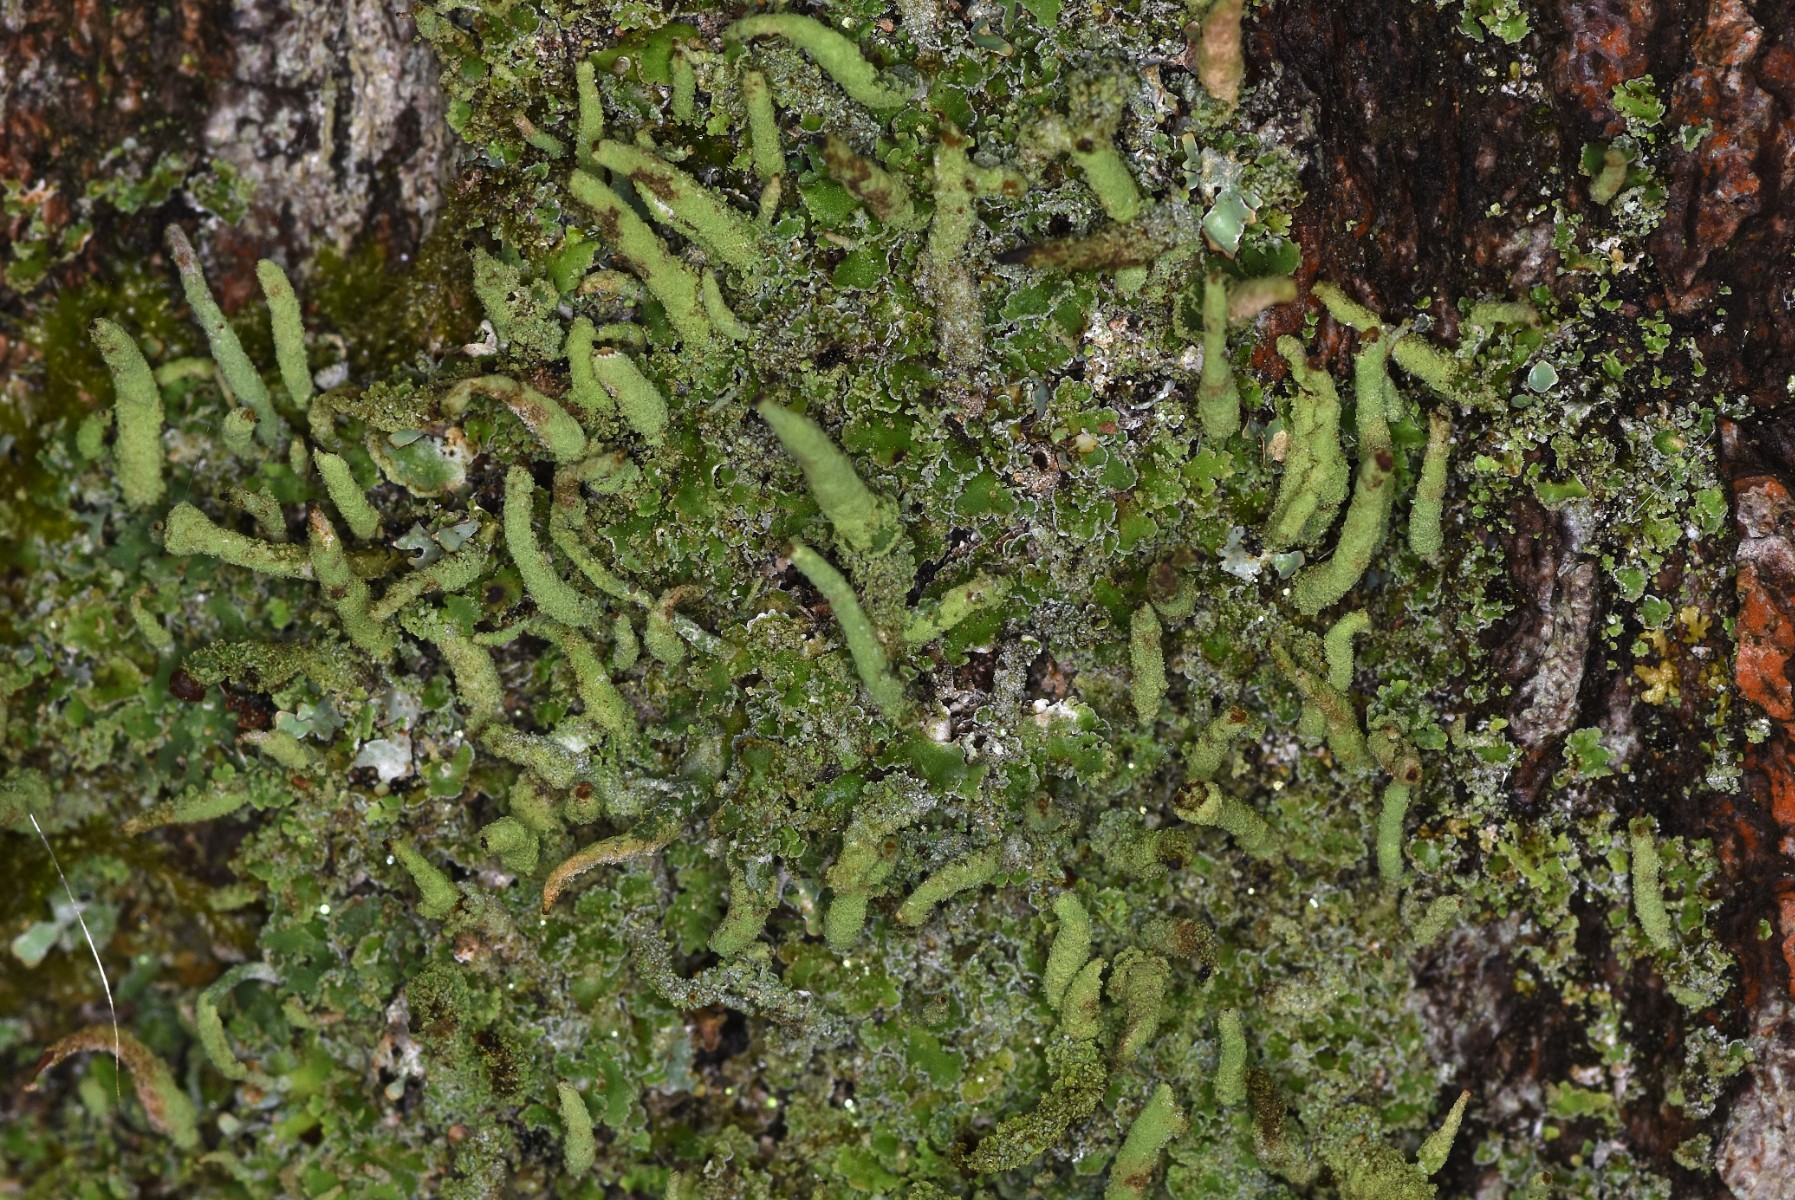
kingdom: Fungi
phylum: Ascomycota
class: Lecanoromycetes
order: Lecanorales
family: Cladoniaceae
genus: Cladonia
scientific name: Cladonia ochrochlora
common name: stød-bægerlav
